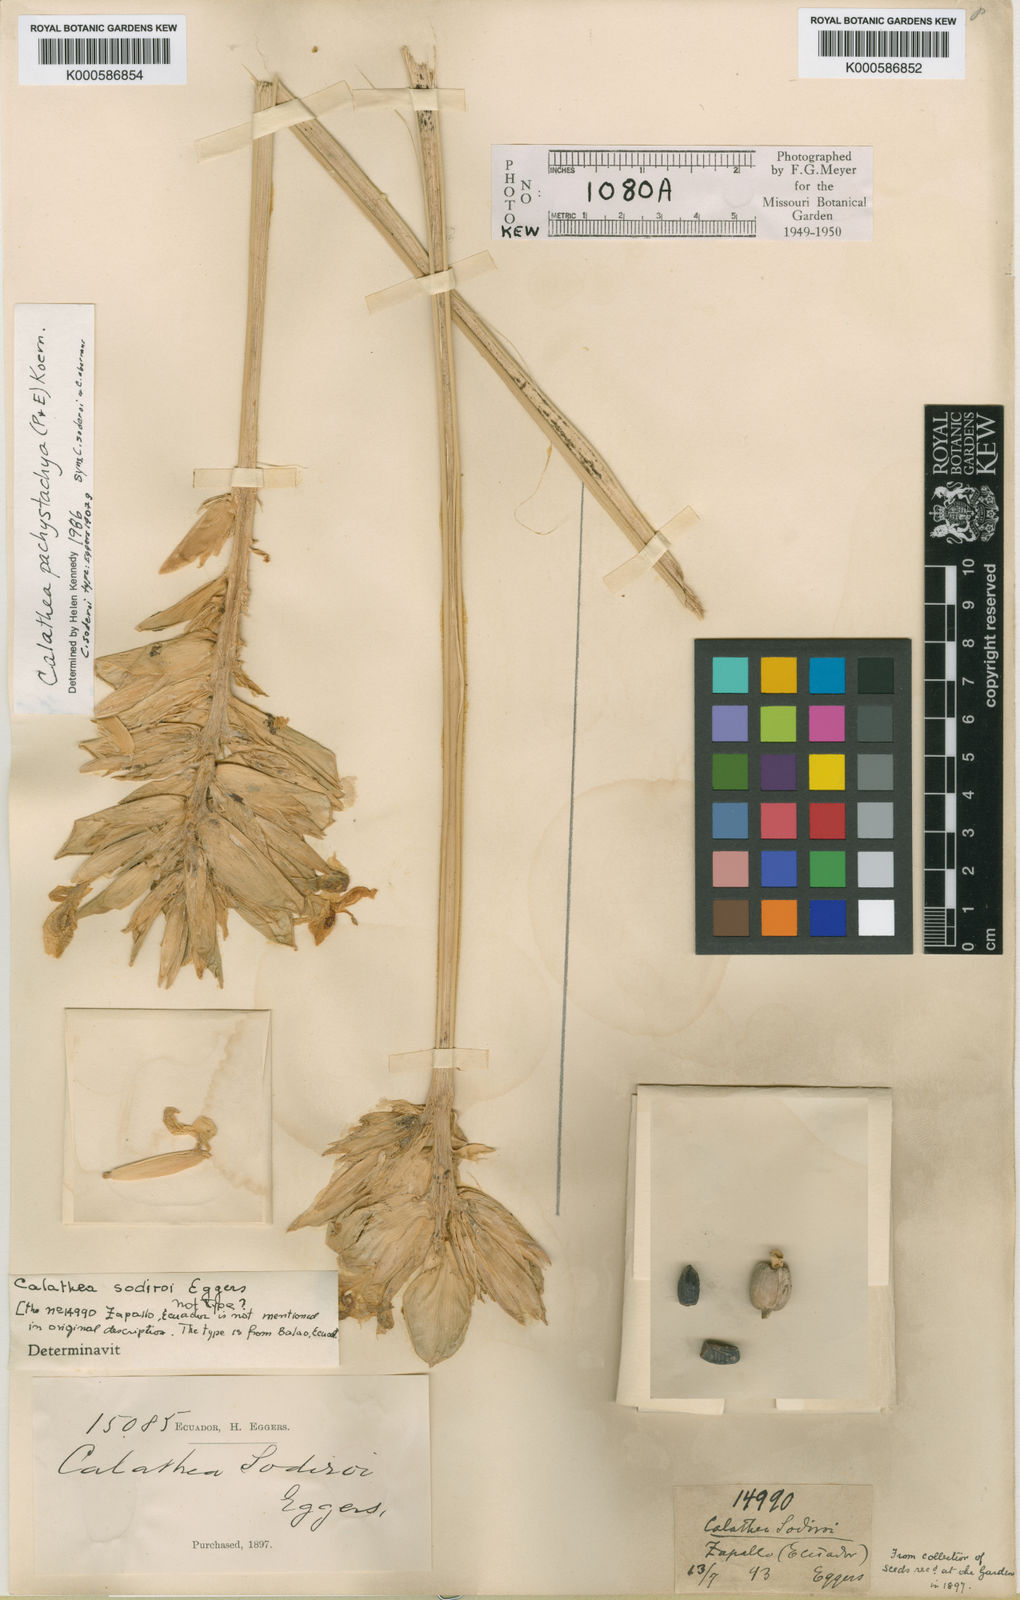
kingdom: Plantae
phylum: Tracheophyta
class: Liliopsida
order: Zingiberales
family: Marantaceae
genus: Goeppertia
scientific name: Goeppertia pachystachya
